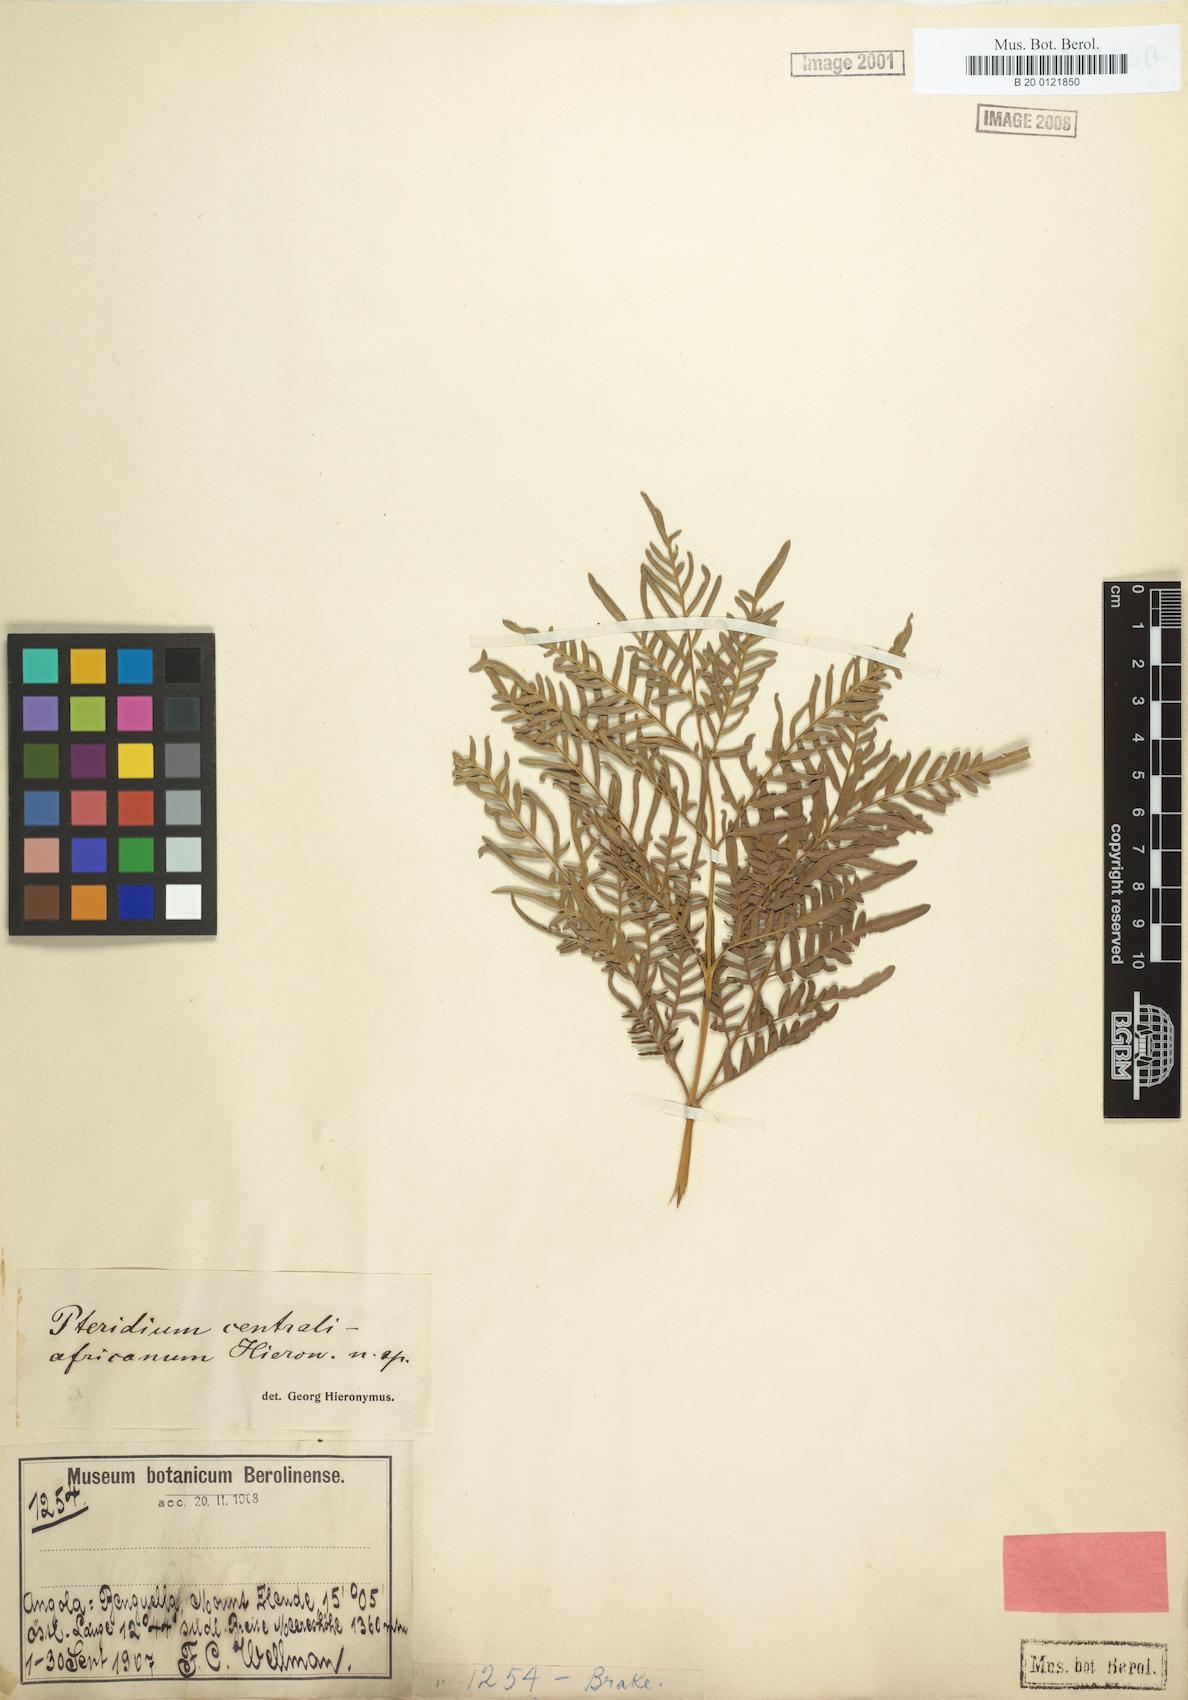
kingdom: Plantae
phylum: Tracheophyta
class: Polypodiopsida
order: Polypodiales
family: Dennstaedtiaceae
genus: Pteridium
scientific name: Pteridium aquilinum
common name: Bracken
